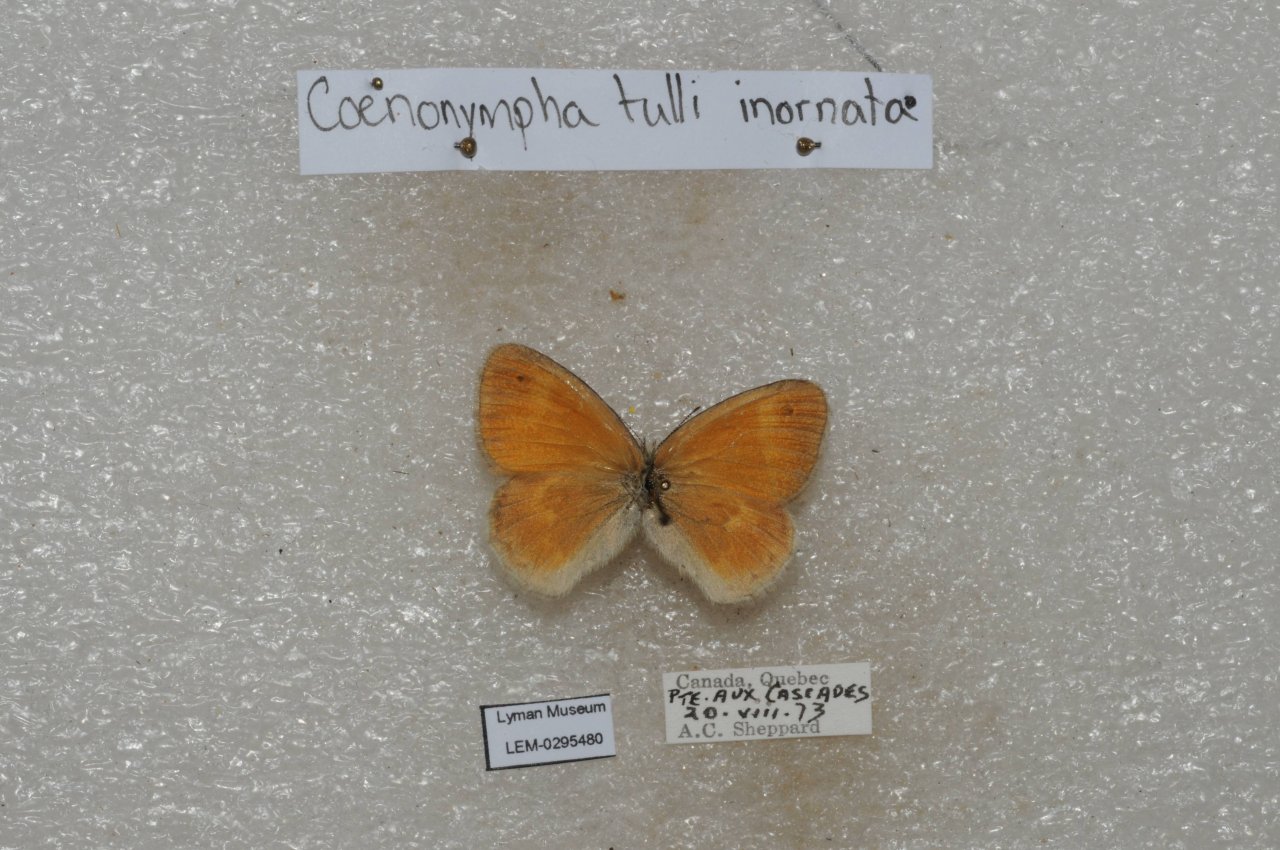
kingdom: Animalia
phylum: Arthropoda
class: Insecta
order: Lepidoptera
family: Nymphalidae
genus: Coenonympha
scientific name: Coenonympha tullia
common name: Large Heath
